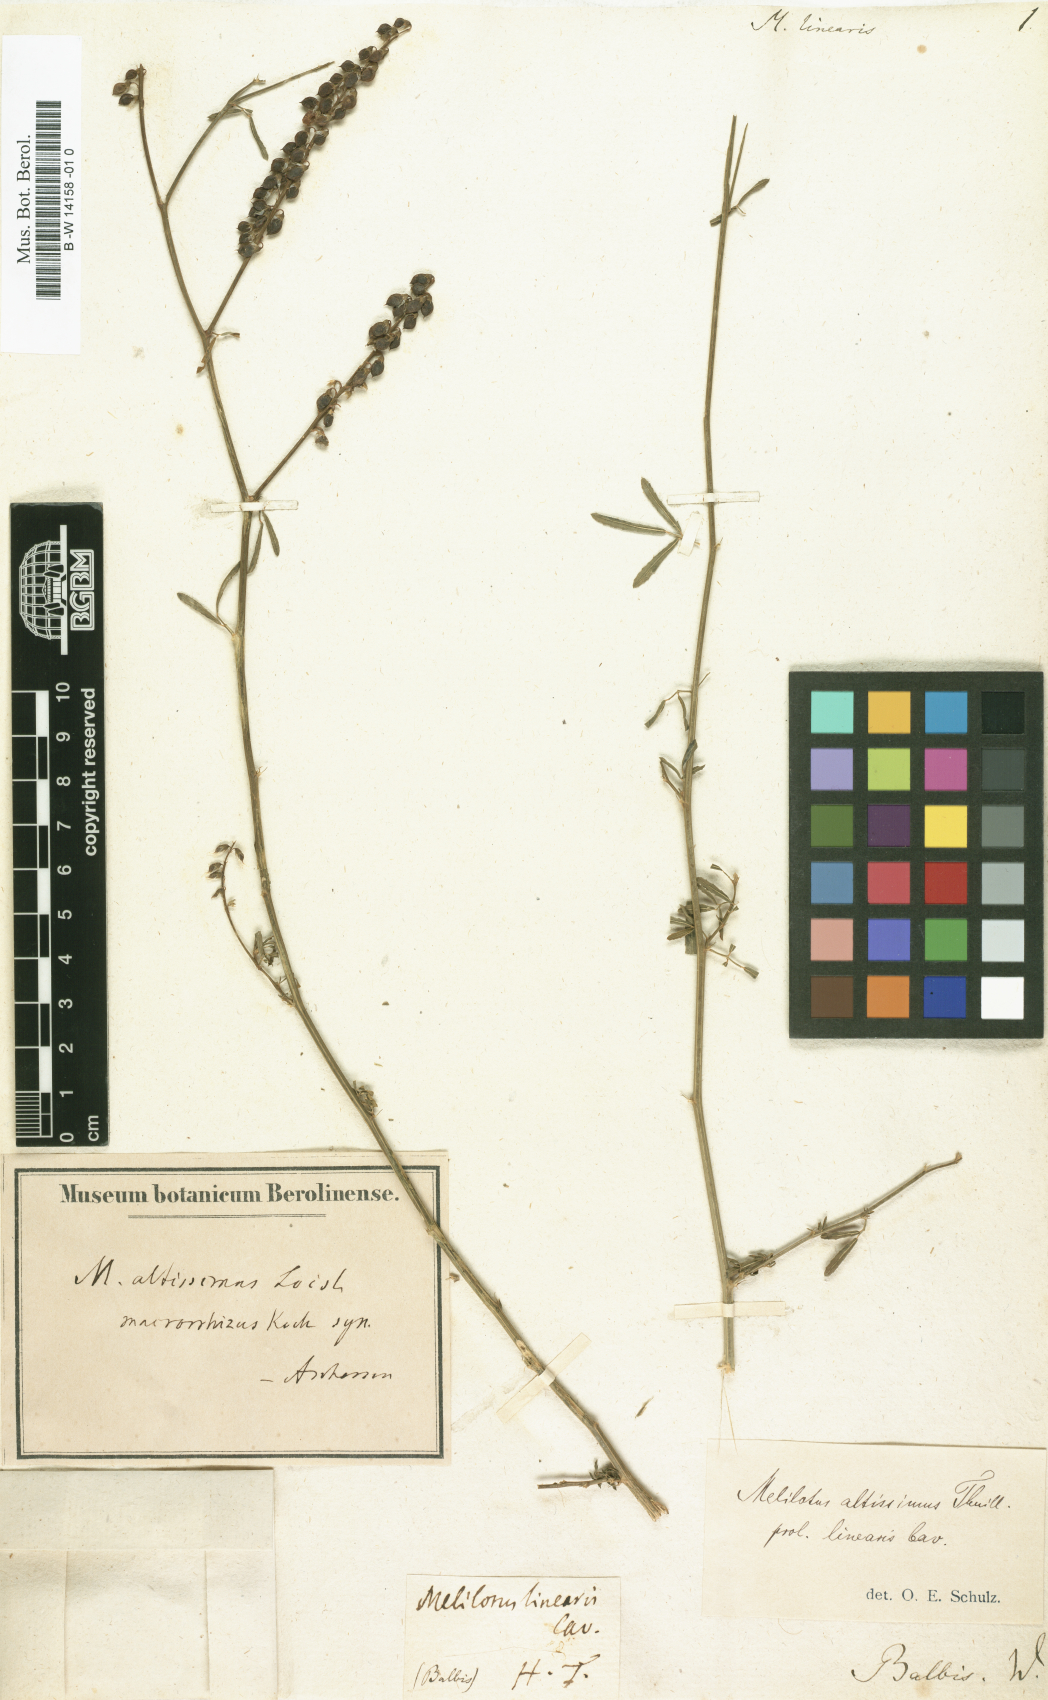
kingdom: Plantae
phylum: Tracheophyta
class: Magnoliopsida
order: Fabales
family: Fabaceae
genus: Melilotus
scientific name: Melilotus dentatus
